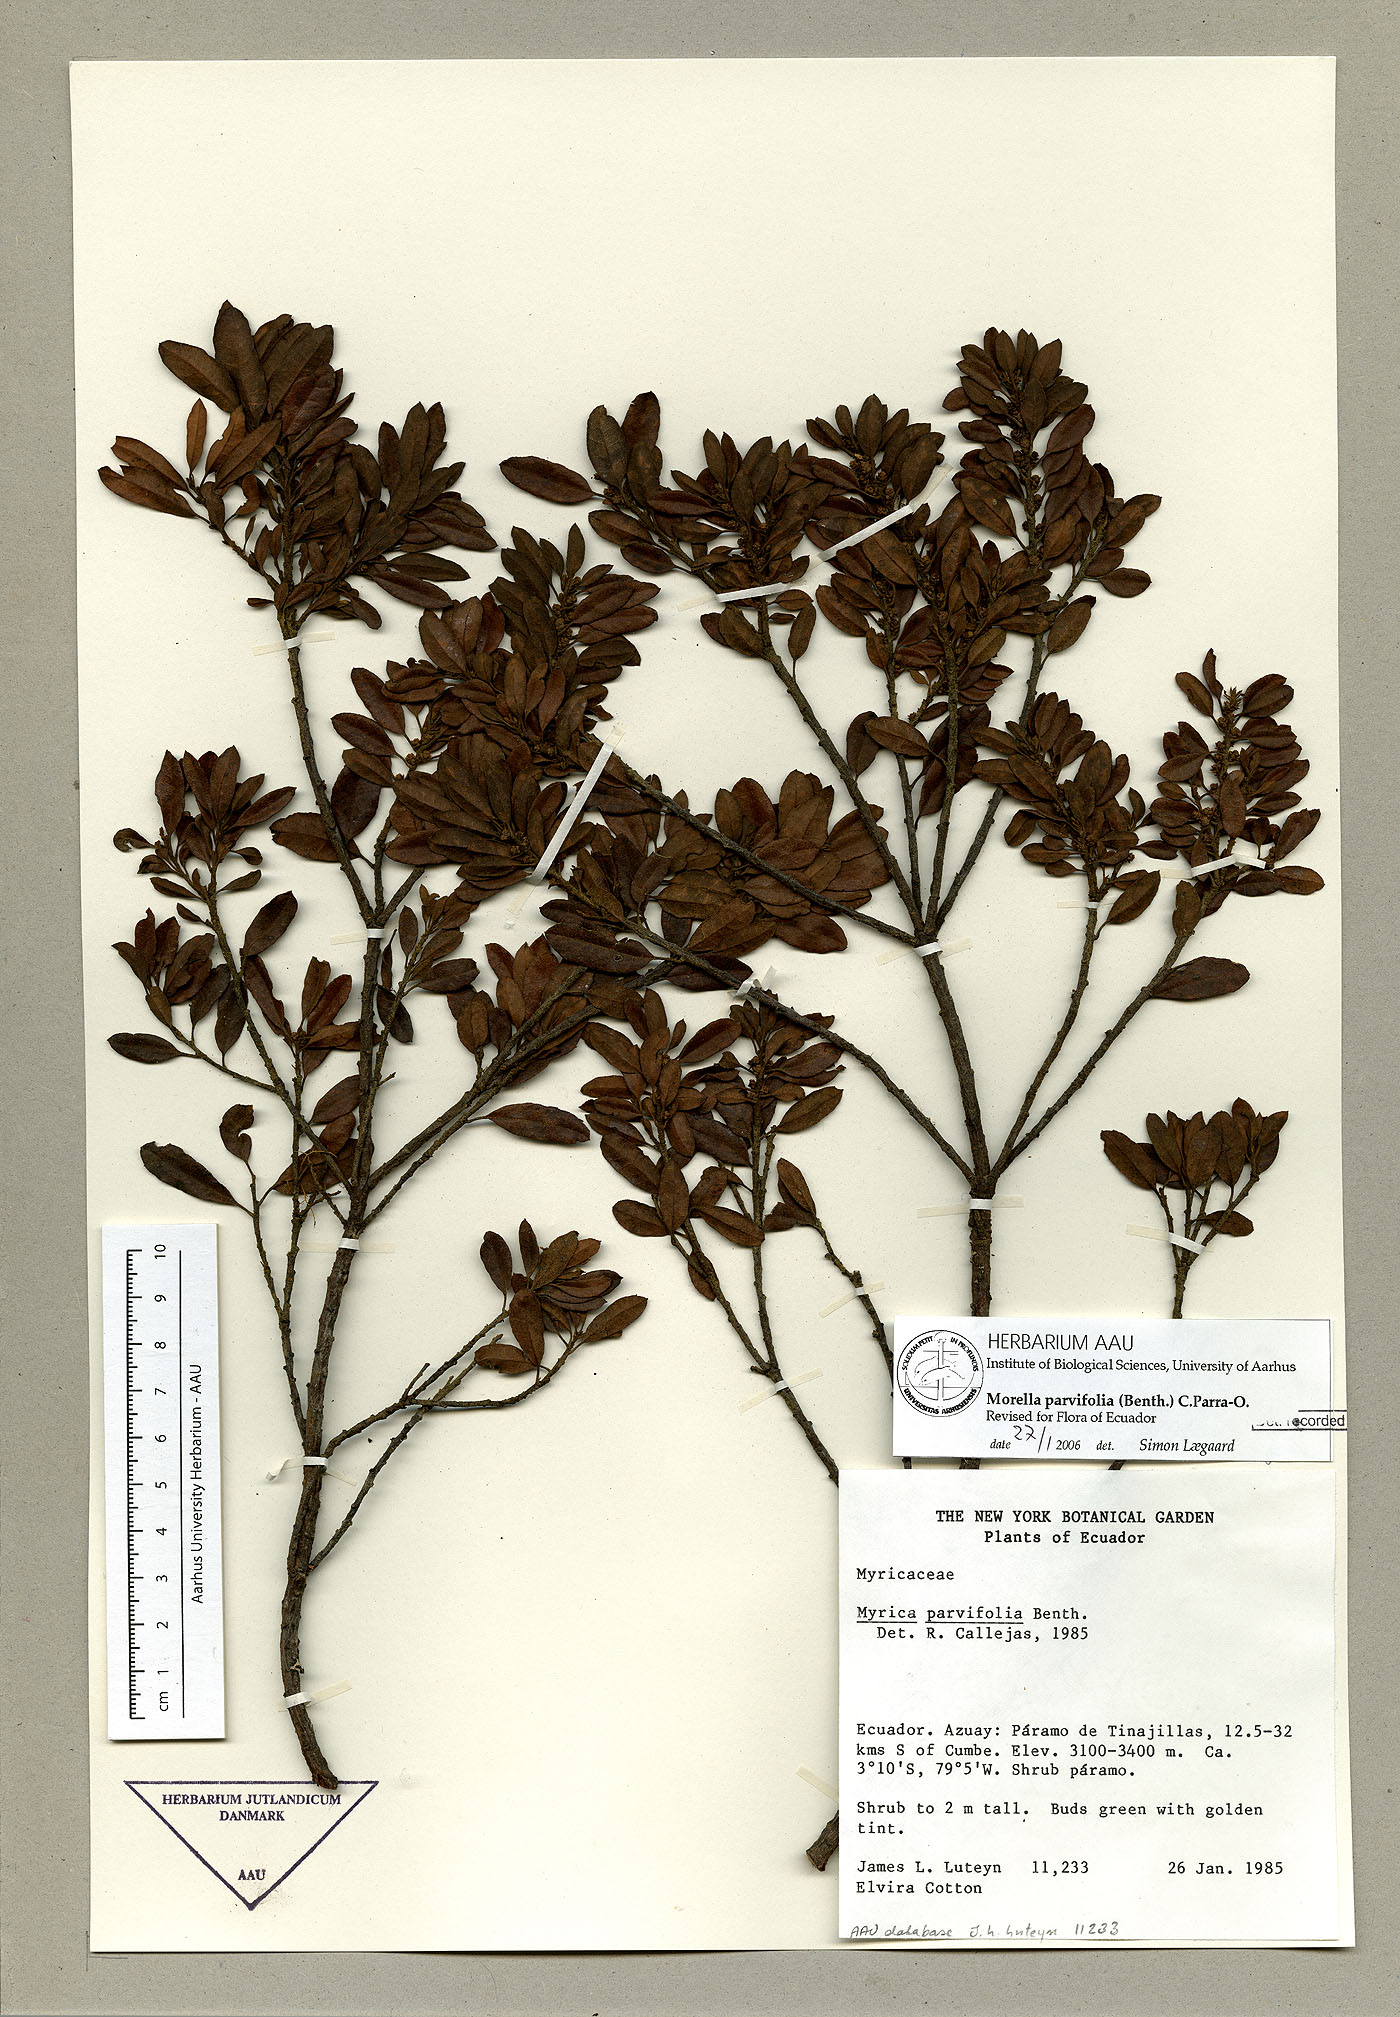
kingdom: Plantae
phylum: Tracheophyta
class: Magnoliopsida
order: Fagales
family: Myricaceae
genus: Morella
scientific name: Morella parvifolia
